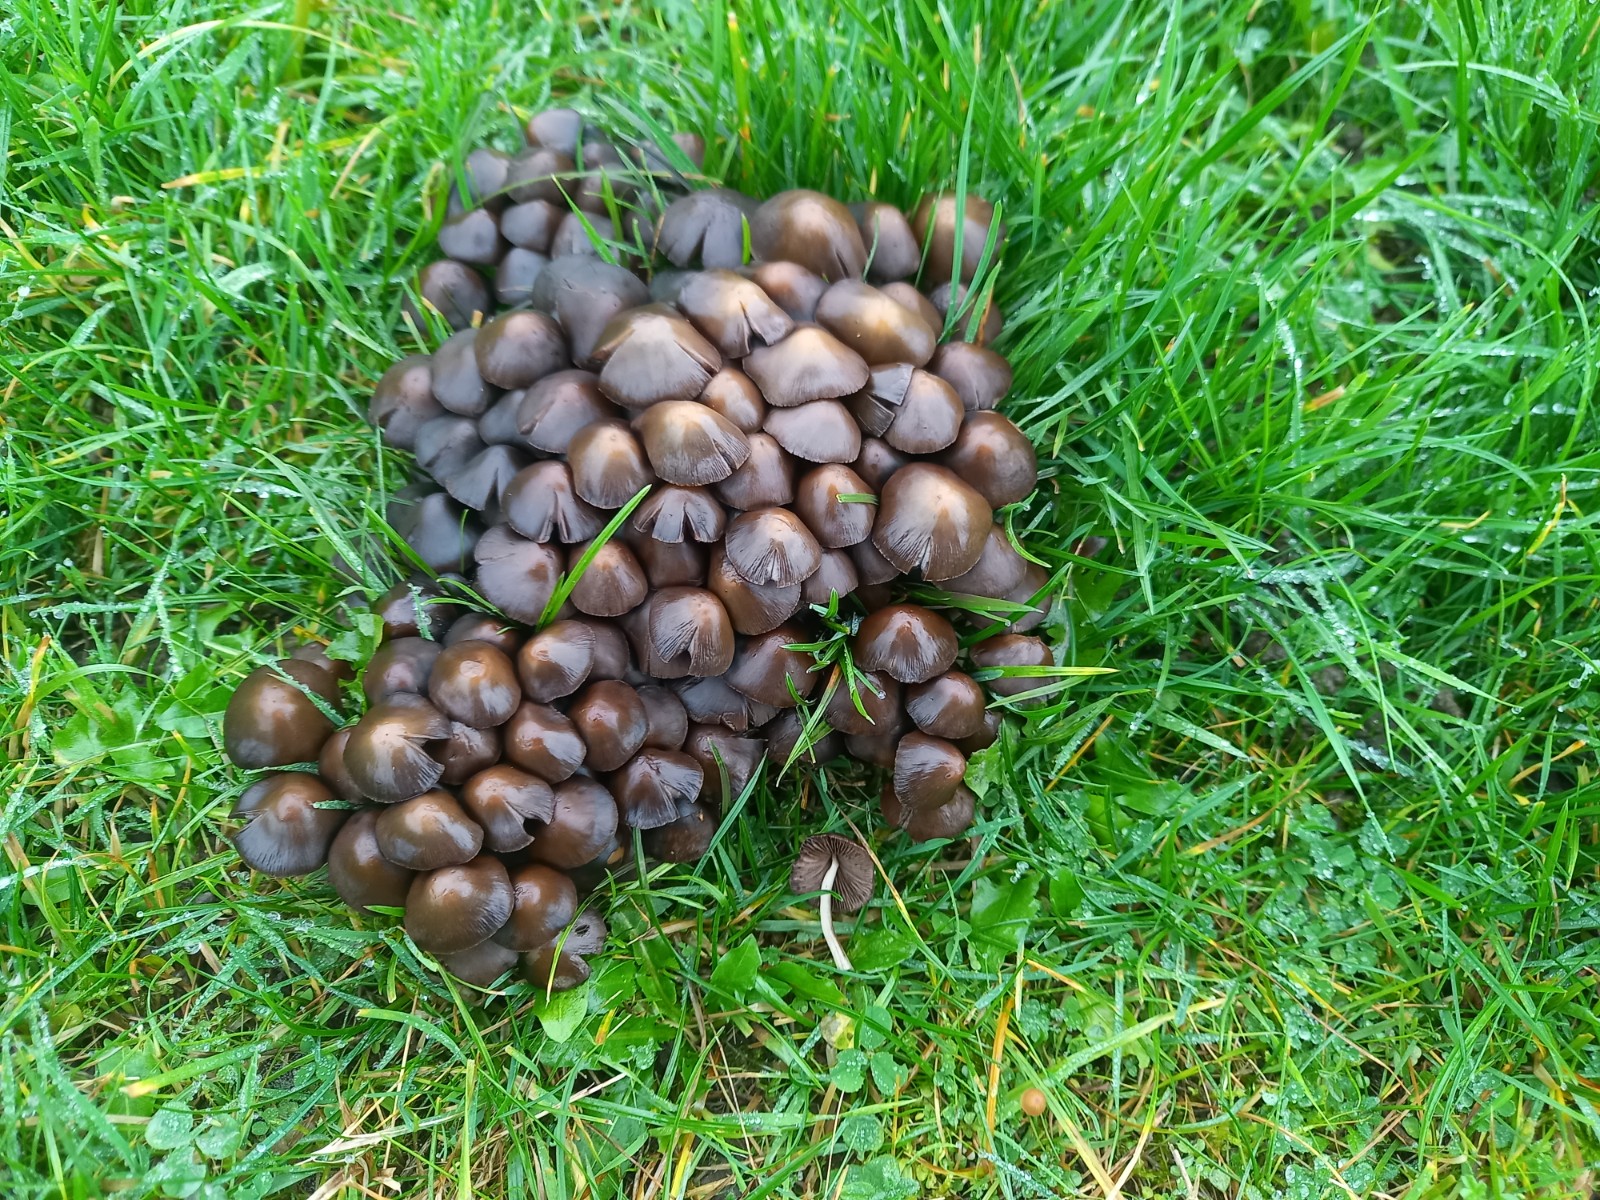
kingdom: Fungi
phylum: Basidiomycota
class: Agaricomycetes
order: Agaricales
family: Psathyrellaceae
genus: Britzelmayria
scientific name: Britzelmayria multipedata
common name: knippe-mørkhat
